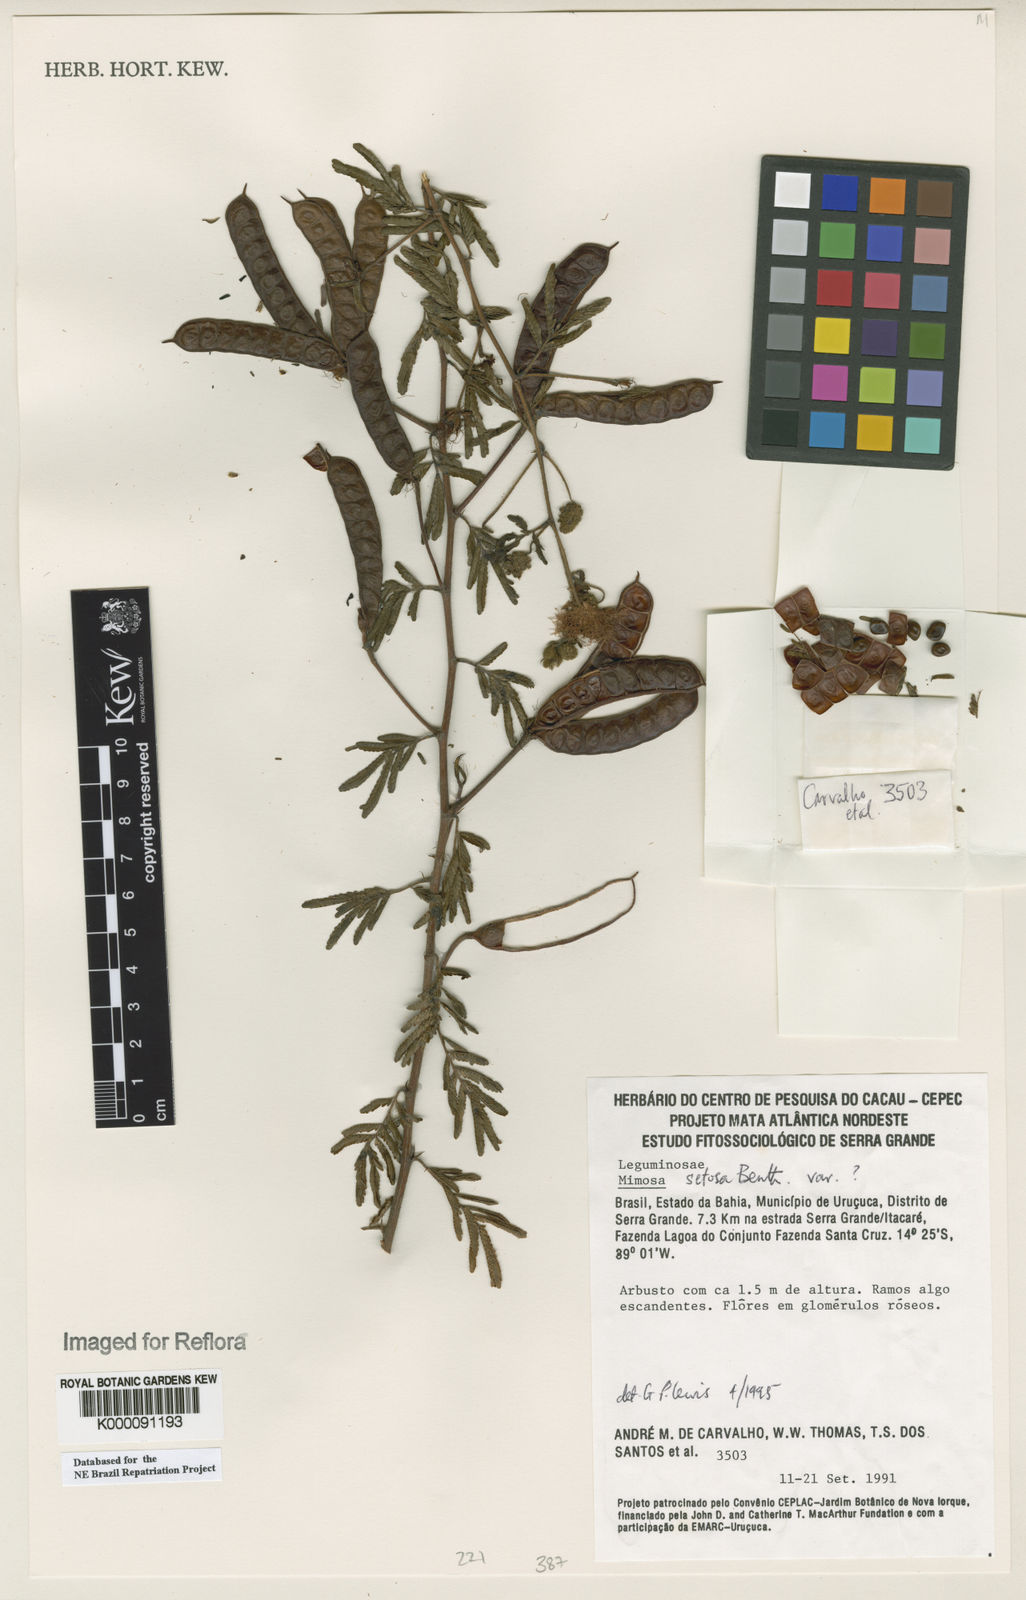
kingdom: Plantae
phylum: Tracheophyta
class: Magnoliopsida
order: Fabales
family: Fabaceae
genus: Mimosa
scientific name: Mimosa paludosa
